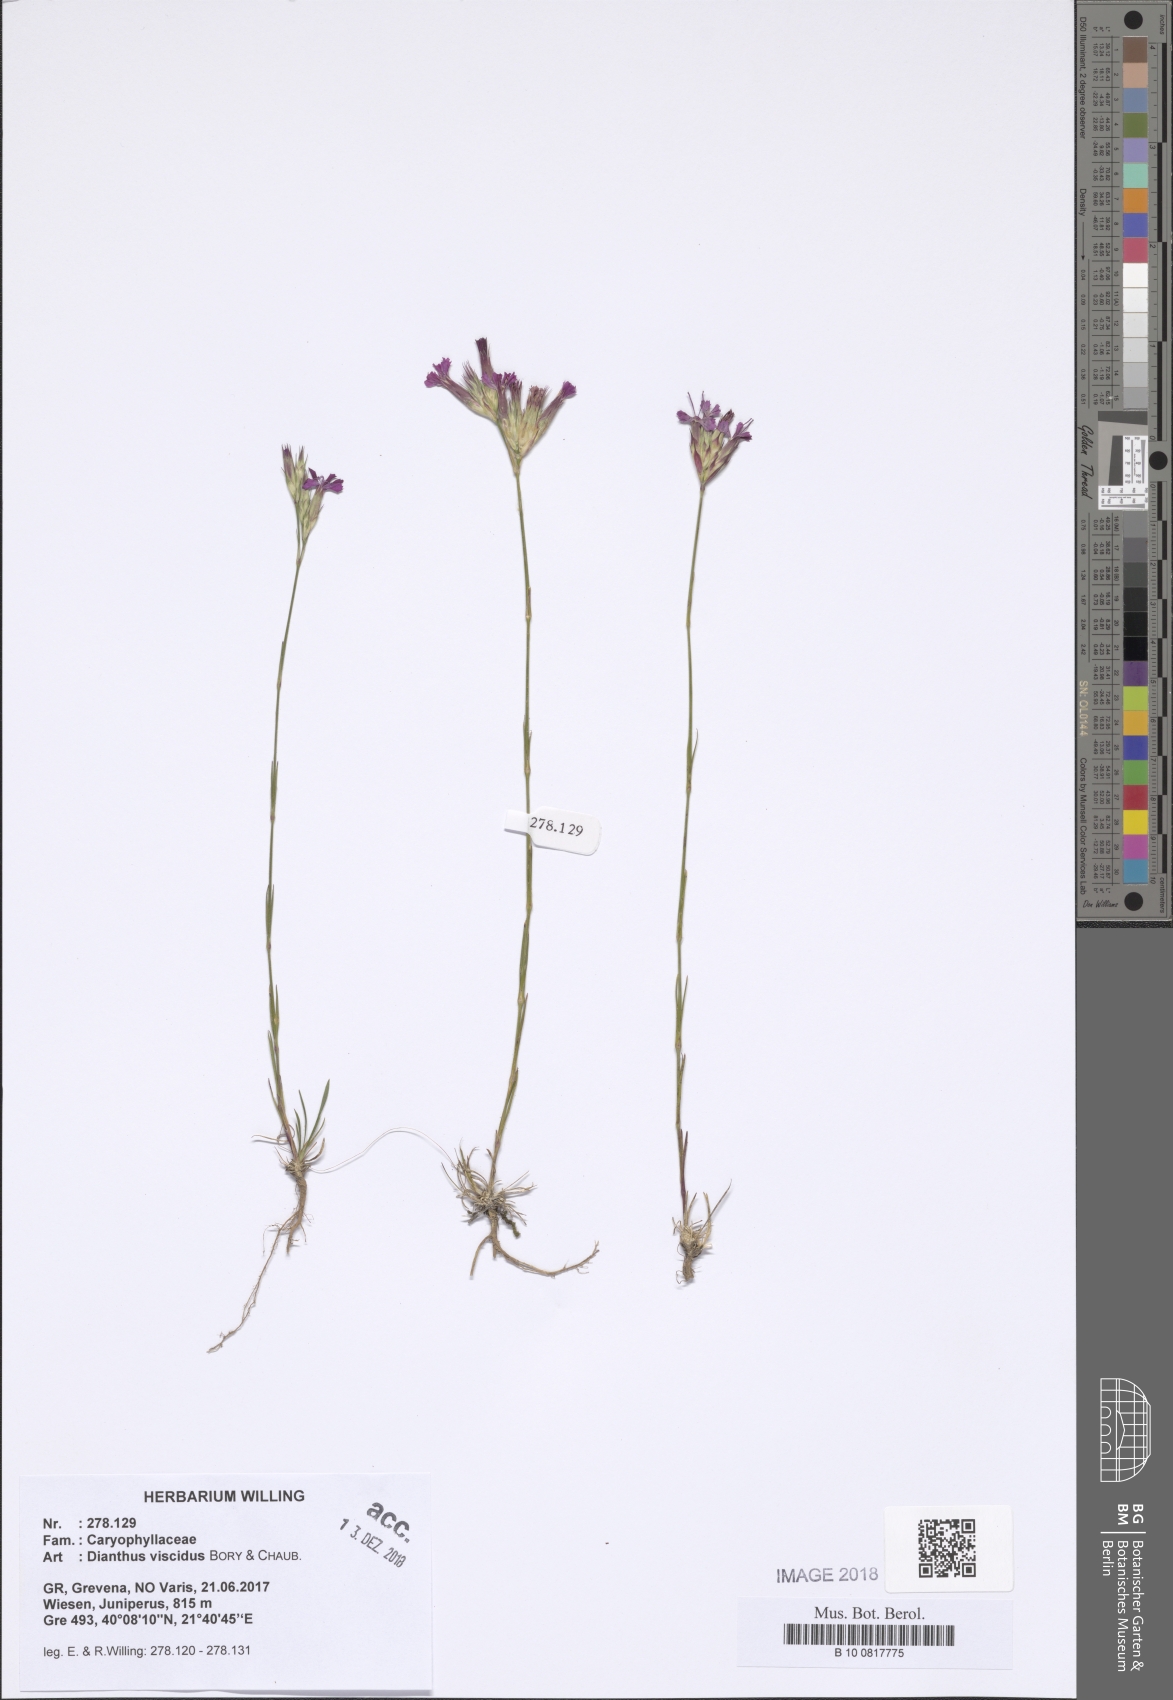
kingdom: Plantae
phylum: Tracheophyta
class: Magnoliopsida
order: Caryophyllales
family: Caryophyllaceae
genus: Dianthus
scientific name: Dianthus viscidus
